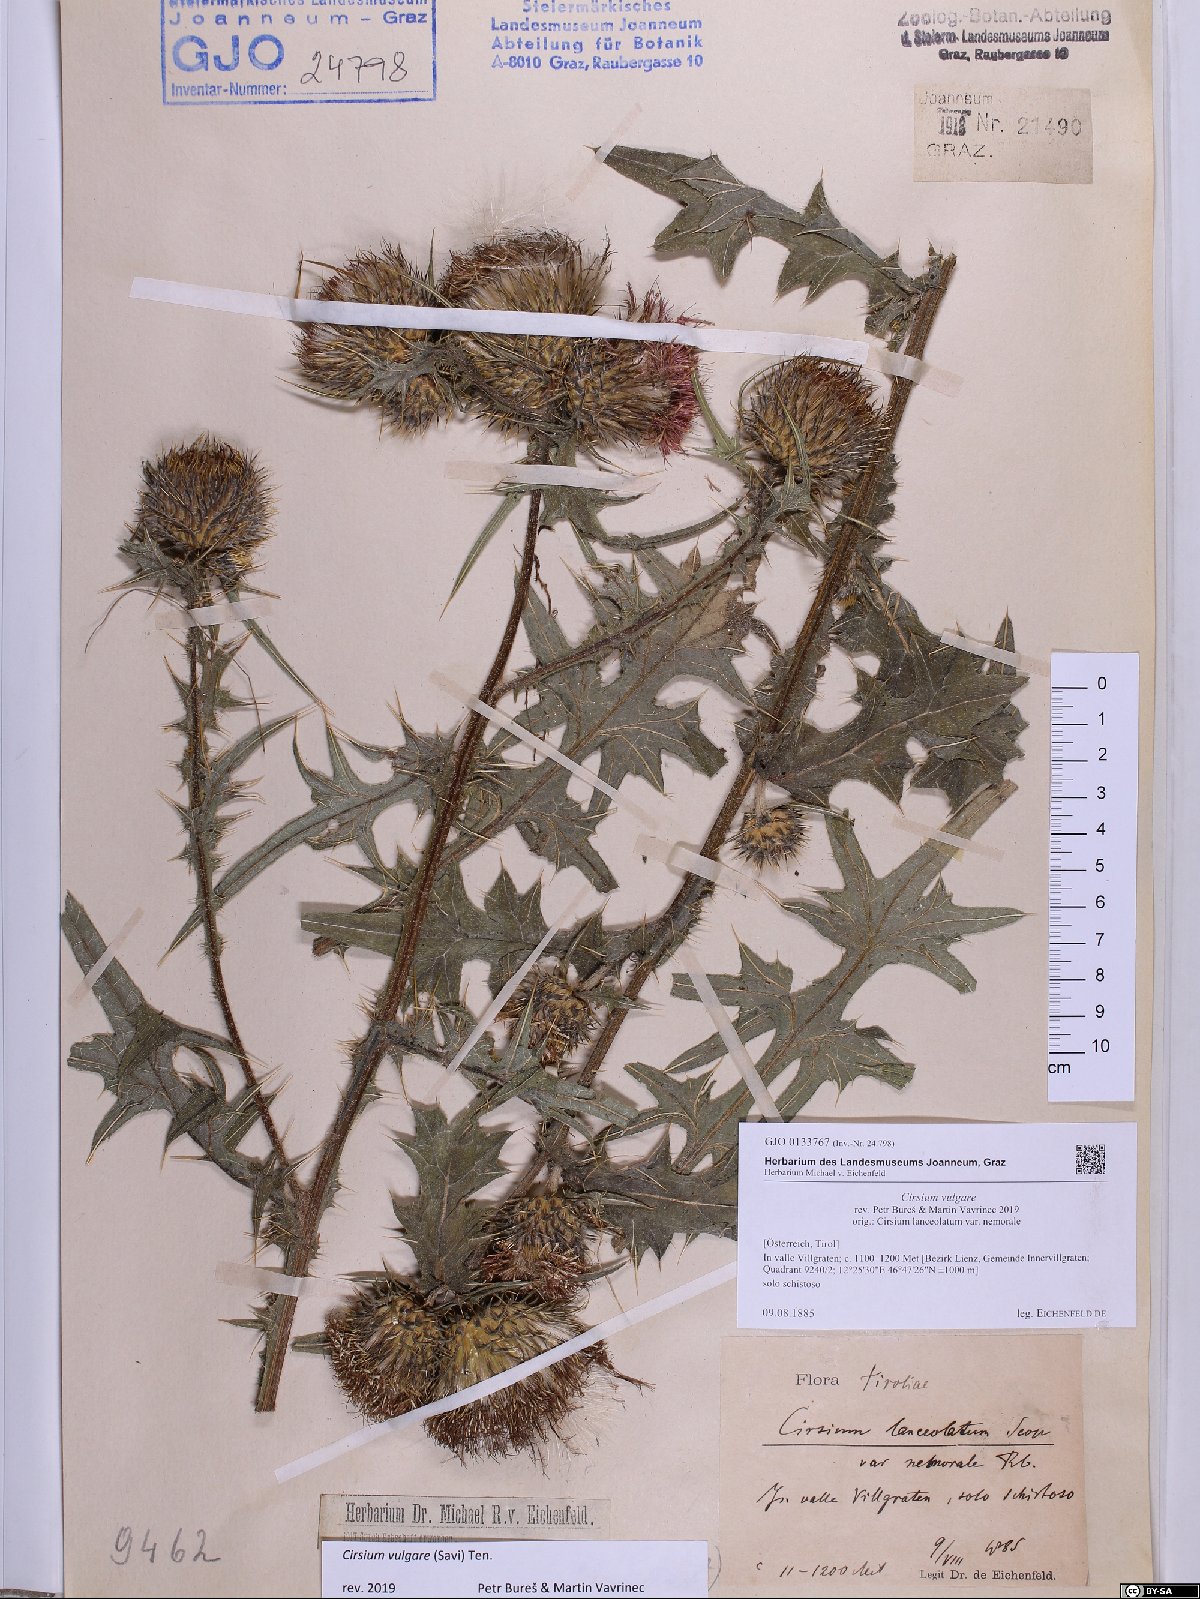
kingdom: Plantae
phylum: Tracheophyta
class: Magnoliopsida
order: Asterales
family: Asteraceae
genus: Cirsium
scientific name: Cirsium vulgare
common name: Bull thistle
